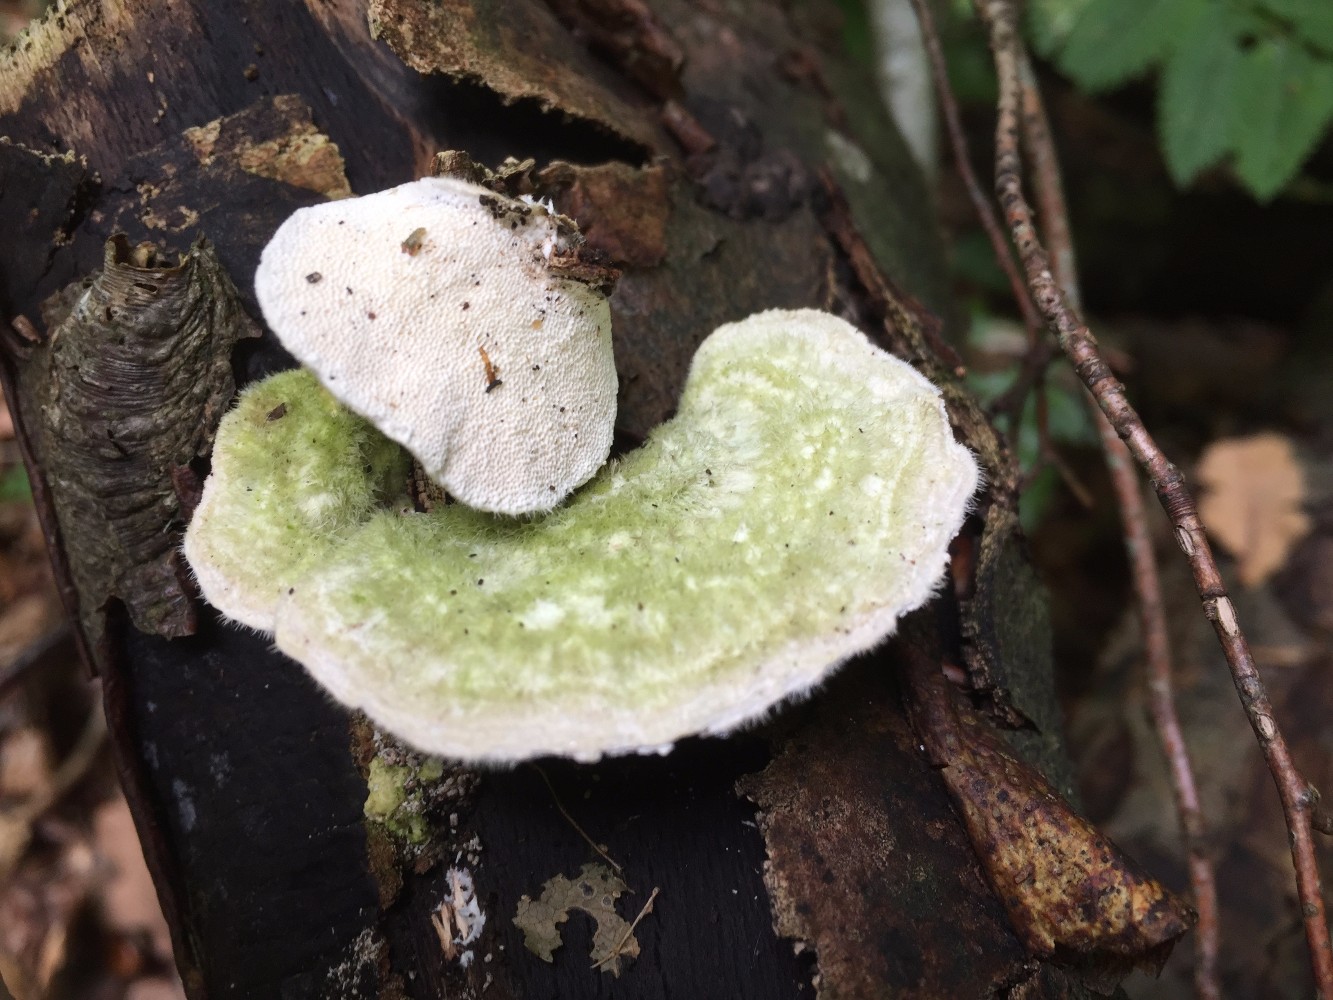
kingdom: Fungi
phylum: Basidiomycota
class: Agaricomycetes
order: Polyporales
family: Polyporaceae
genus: Trametes
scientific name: Trametes hirsuta
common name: håret læderporesvamp
